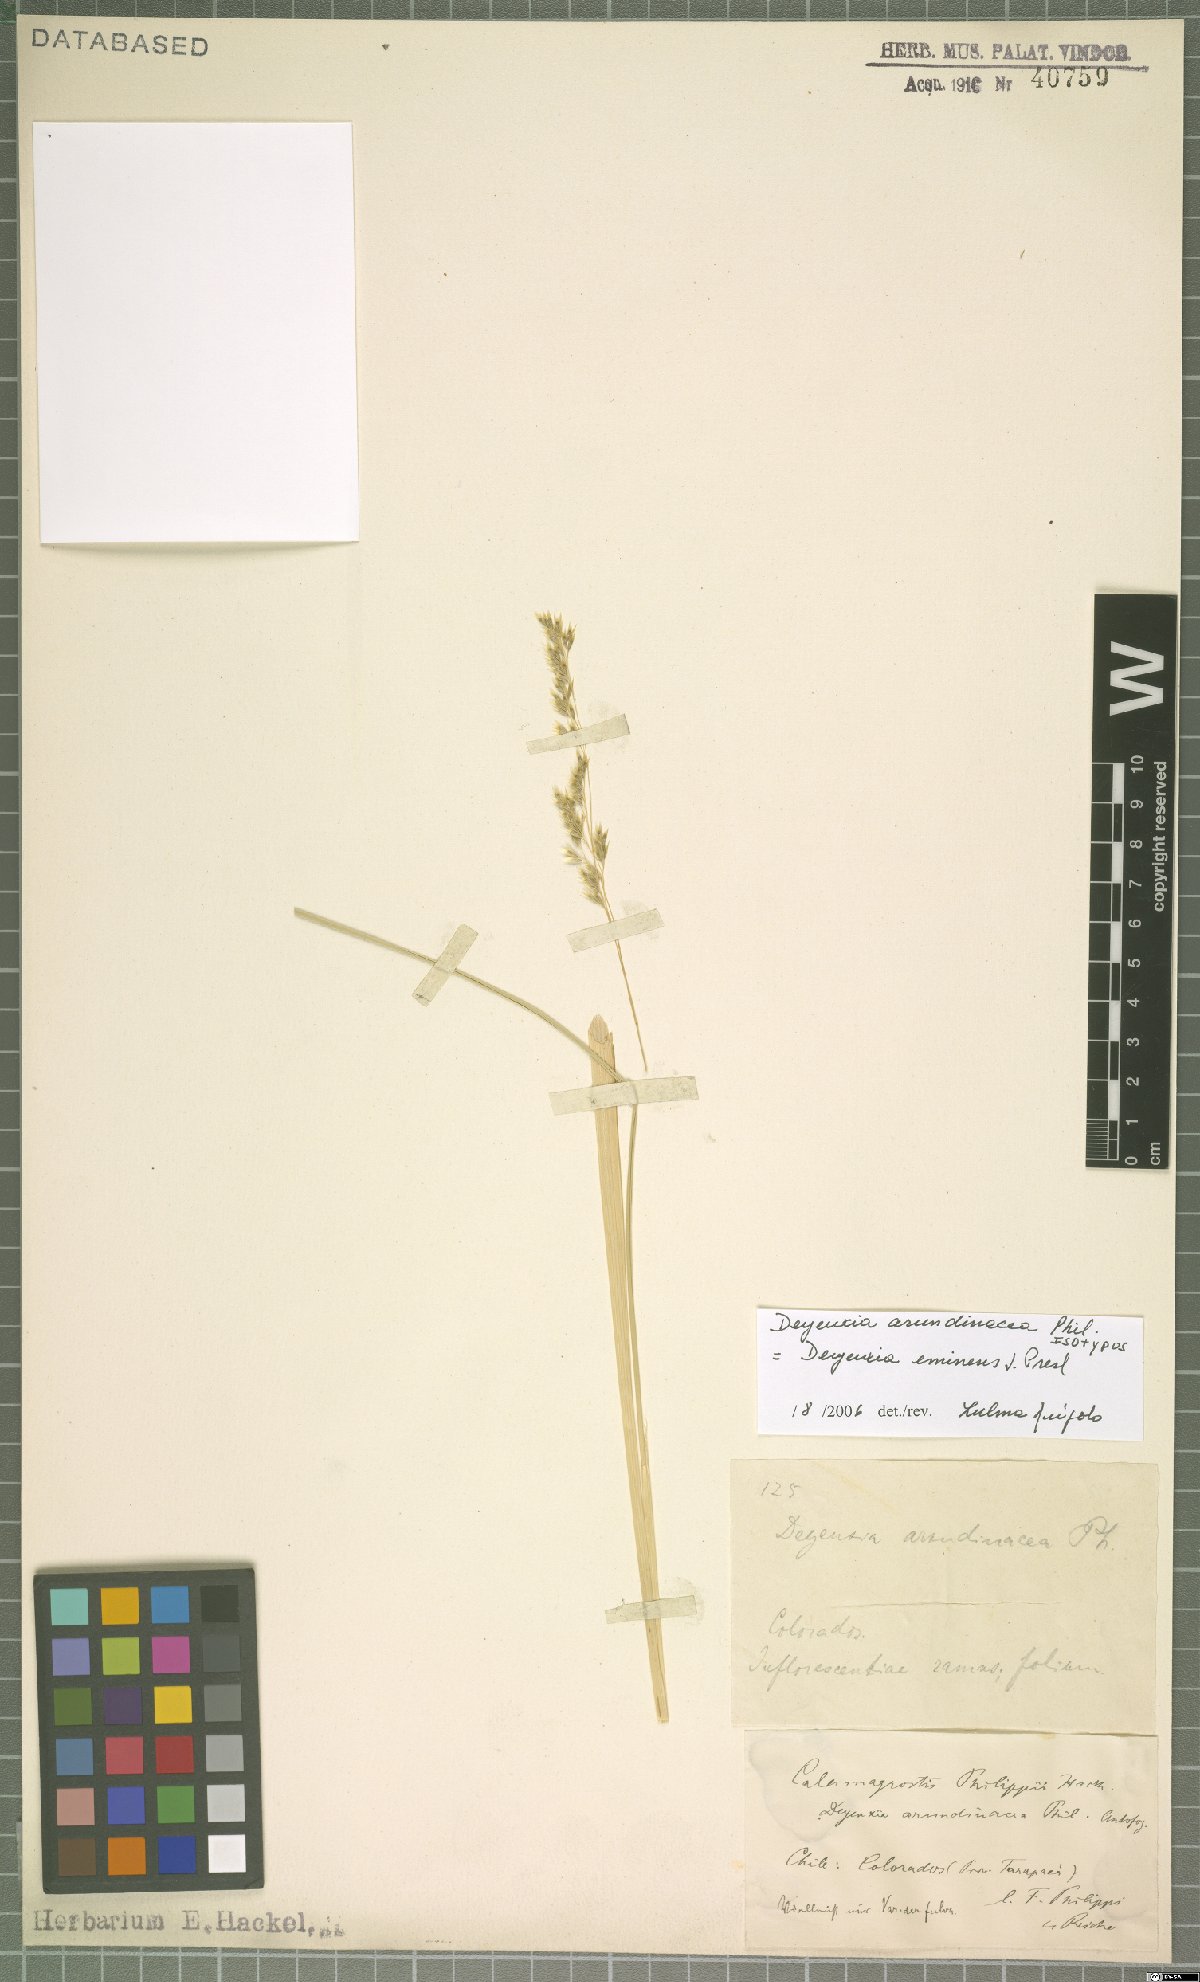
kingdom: Plantae
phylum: Tracheophyta
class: Liliopsida
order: Poales
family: Poaceae
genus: Deschampsia
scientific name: Deschampsia eminens
